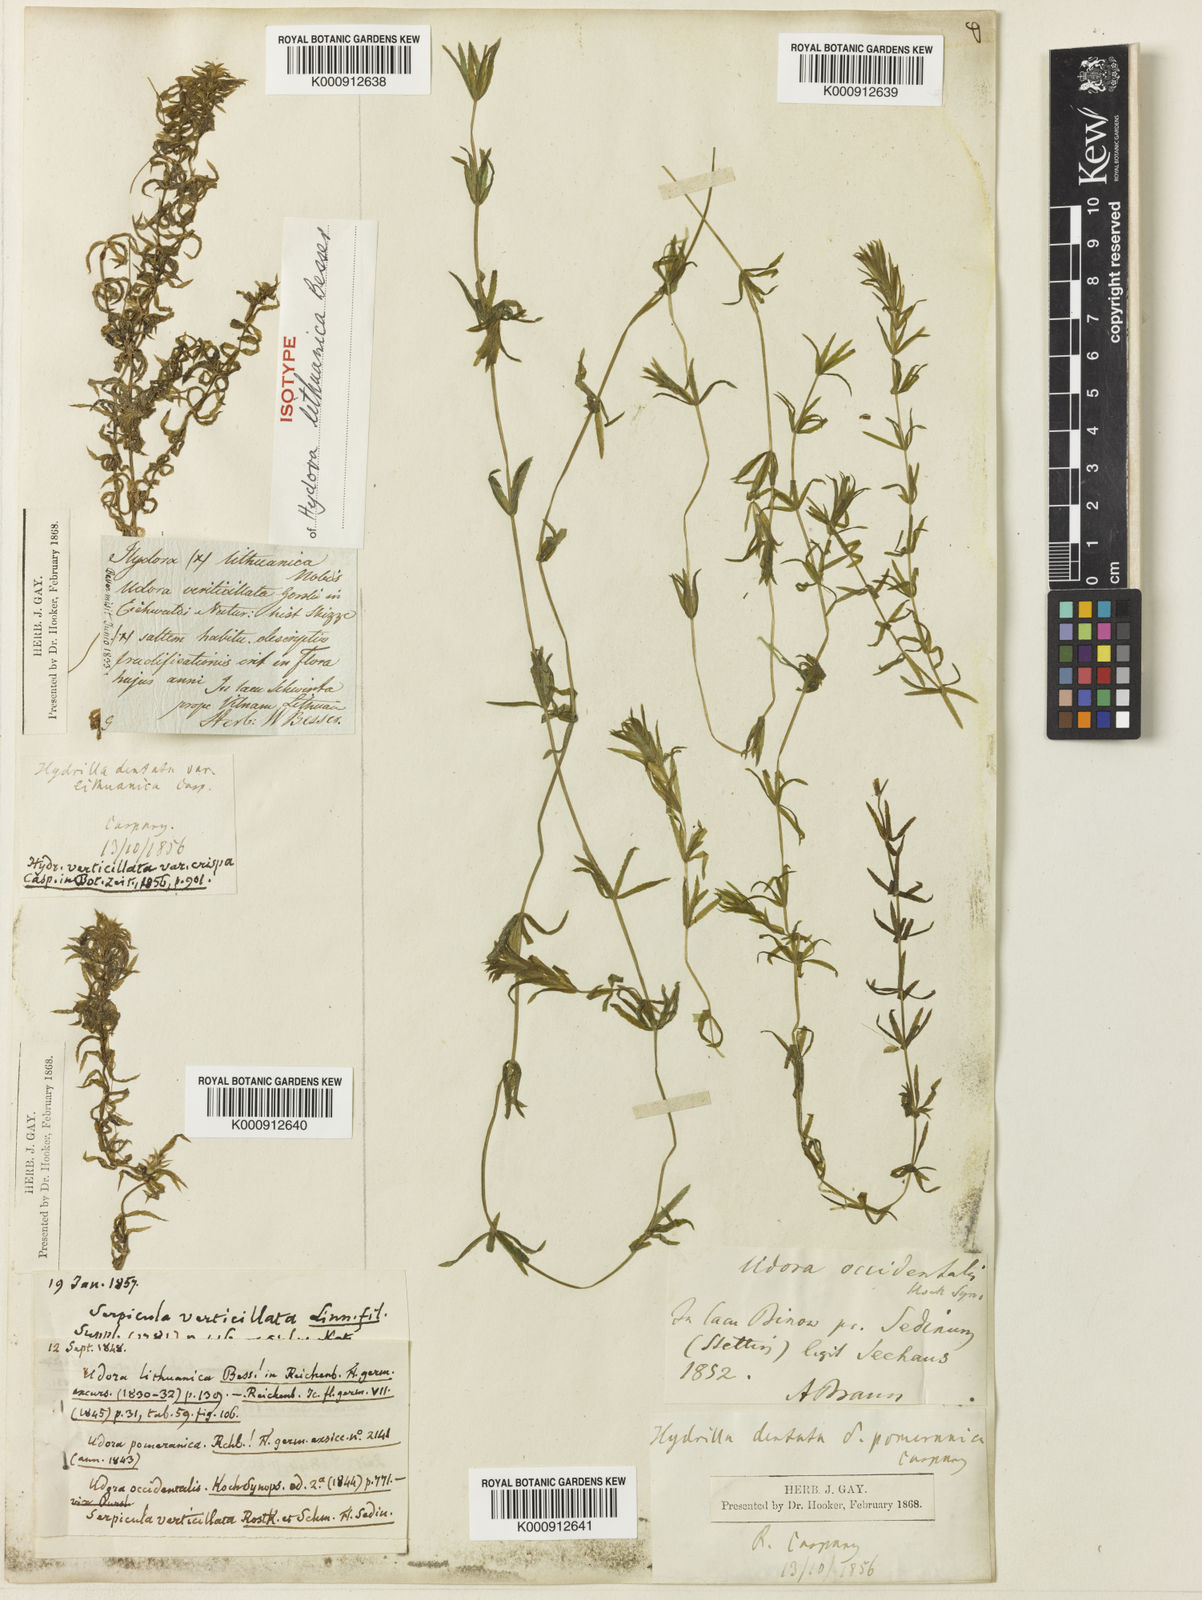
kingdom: Plantae
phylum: Tracheophyta
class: Liliopsida
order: Alismatales
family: Hydrocharitaceae
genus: Hydrilla
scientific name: Hydrilla verticillata
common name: Florida-elodea
